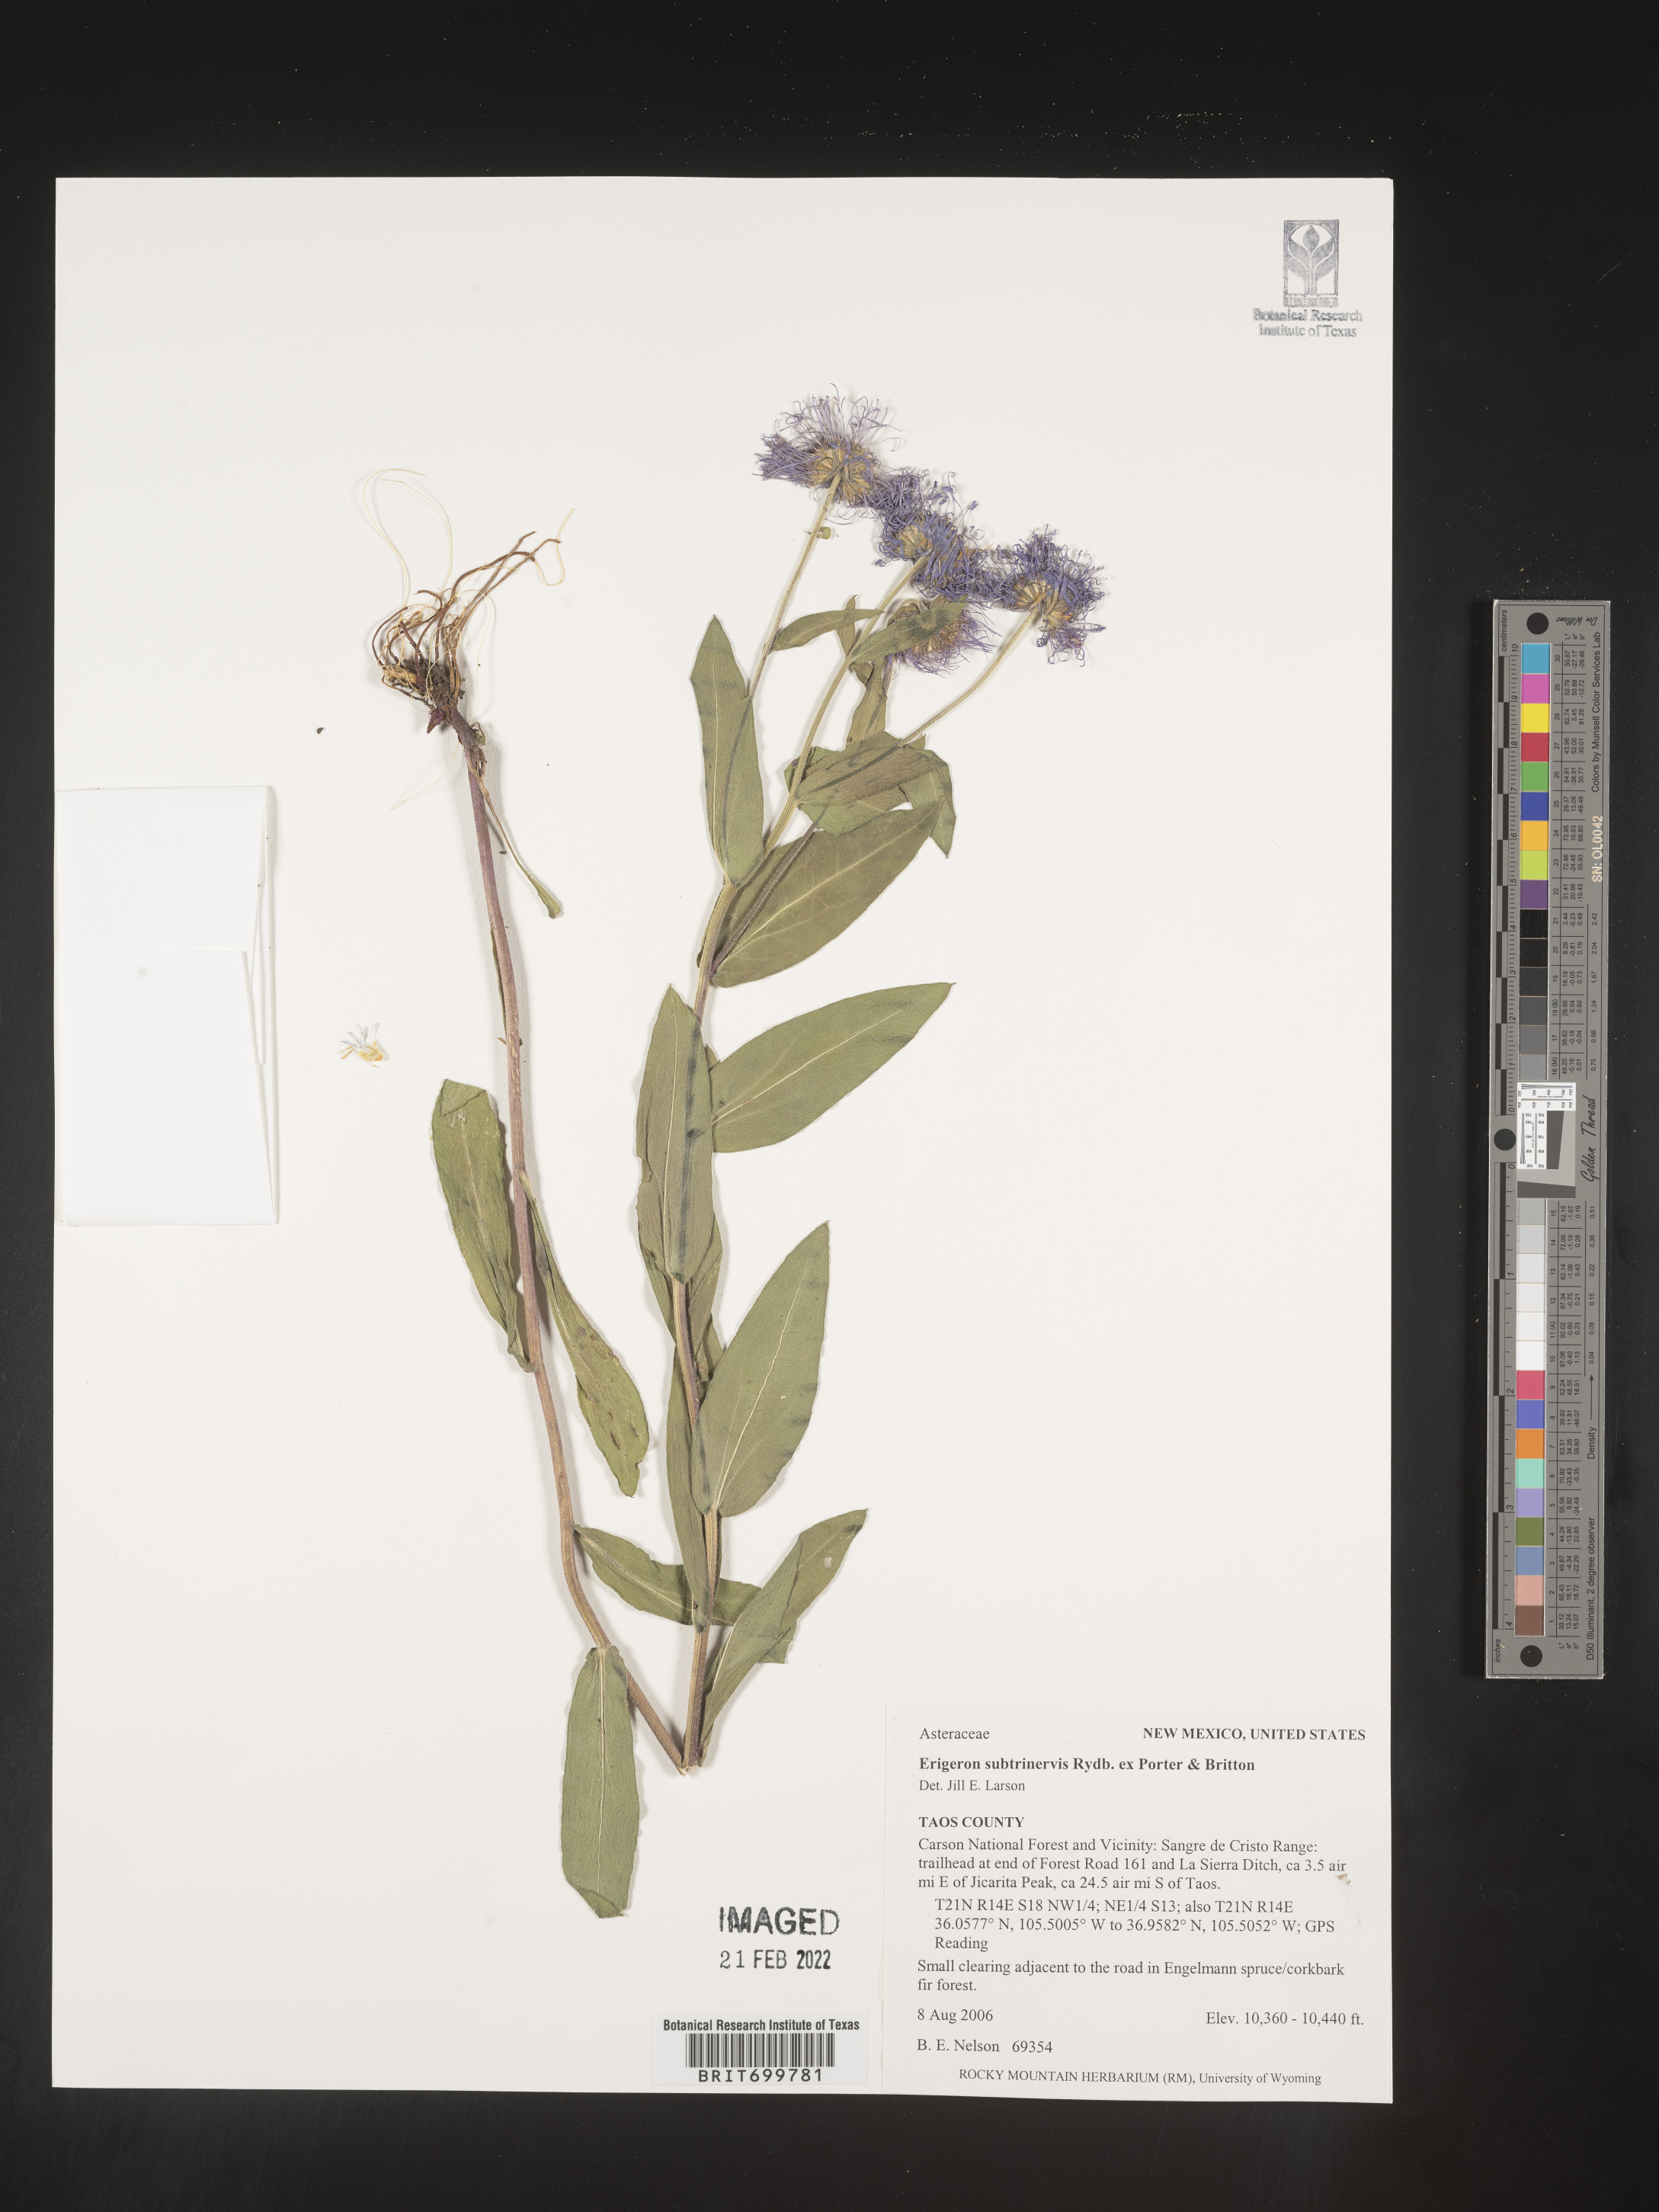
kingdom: Plantae
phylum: Tracheophyta
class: Magnoliopsida
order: Asterales
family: Asteraceae
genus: Erigeron
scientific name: Erigeron subtrinervis
